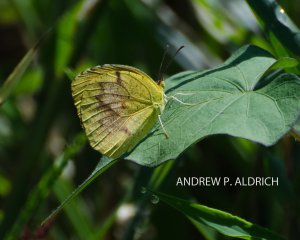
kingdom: Animalia
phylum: Arthropoda
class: Insecta
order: Lepidoptera
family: Pieridae
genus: Abaeis
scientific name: Abaeis nicippe
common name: Sleepy Orange
